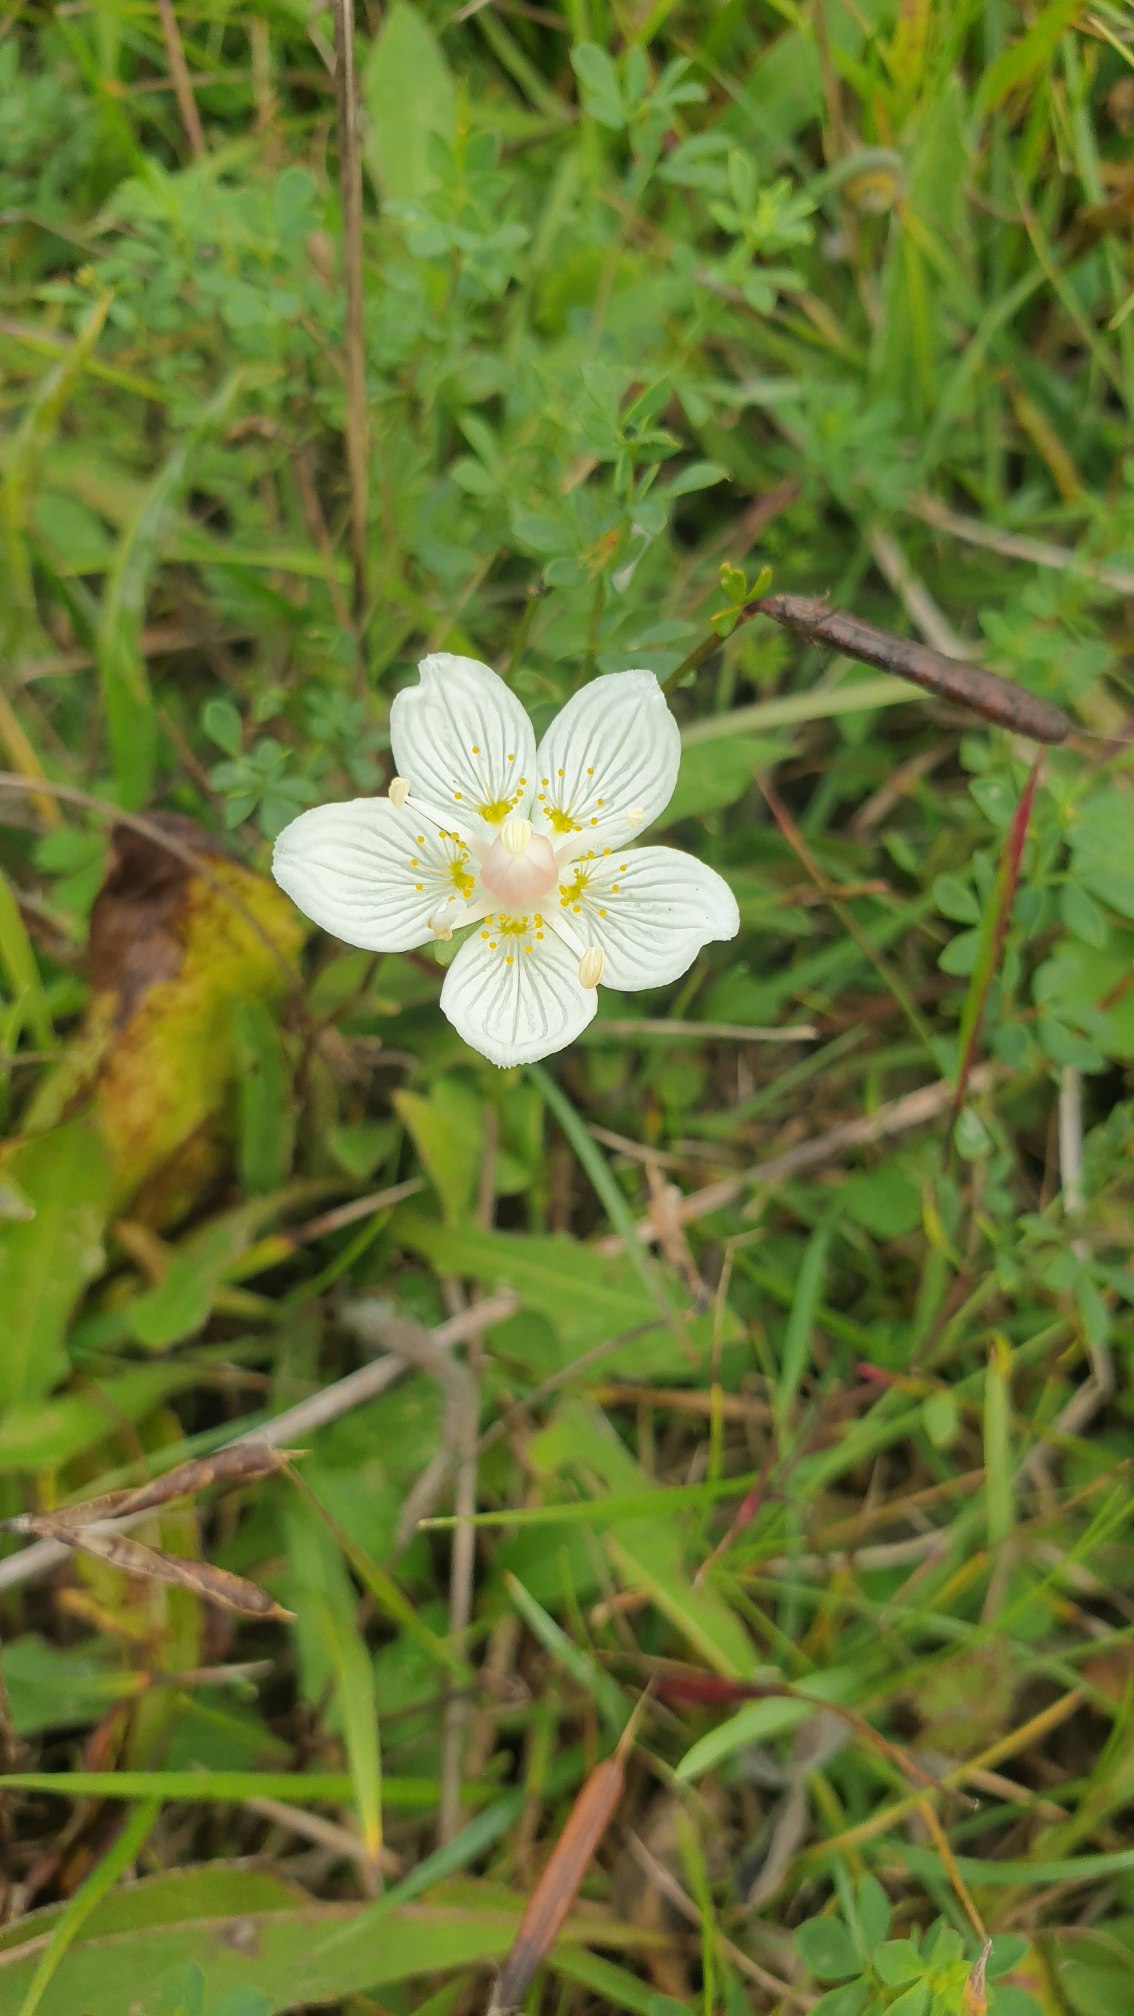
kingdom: Plantae
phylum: Tracheophyta
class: Magnoliopsida
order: Celastrales
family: Parnassiaceae
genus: Parnassia
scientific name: Parnassia palustris
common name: Leverurt
